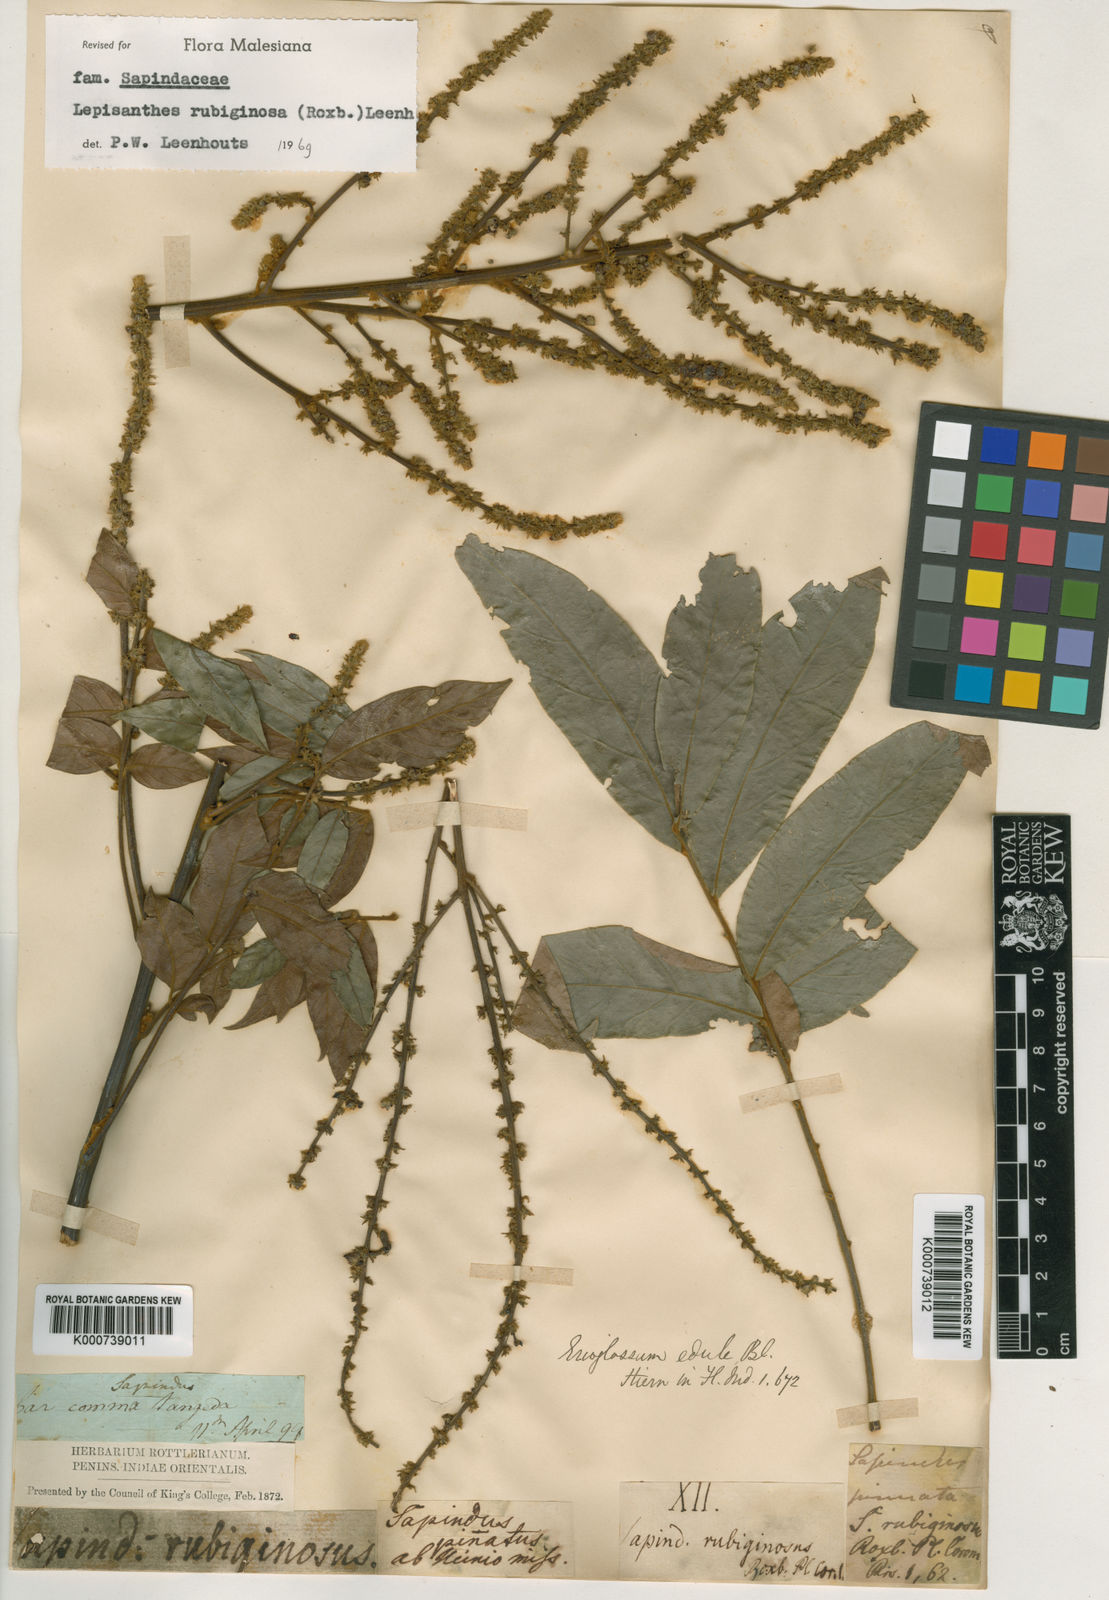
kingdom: Plantae
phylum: Tracheophyta
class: Magnoliopsida
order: Sapindales
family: Sapindaceae
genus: Lepisanthes
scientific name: Lepisanthes rubiginosa
